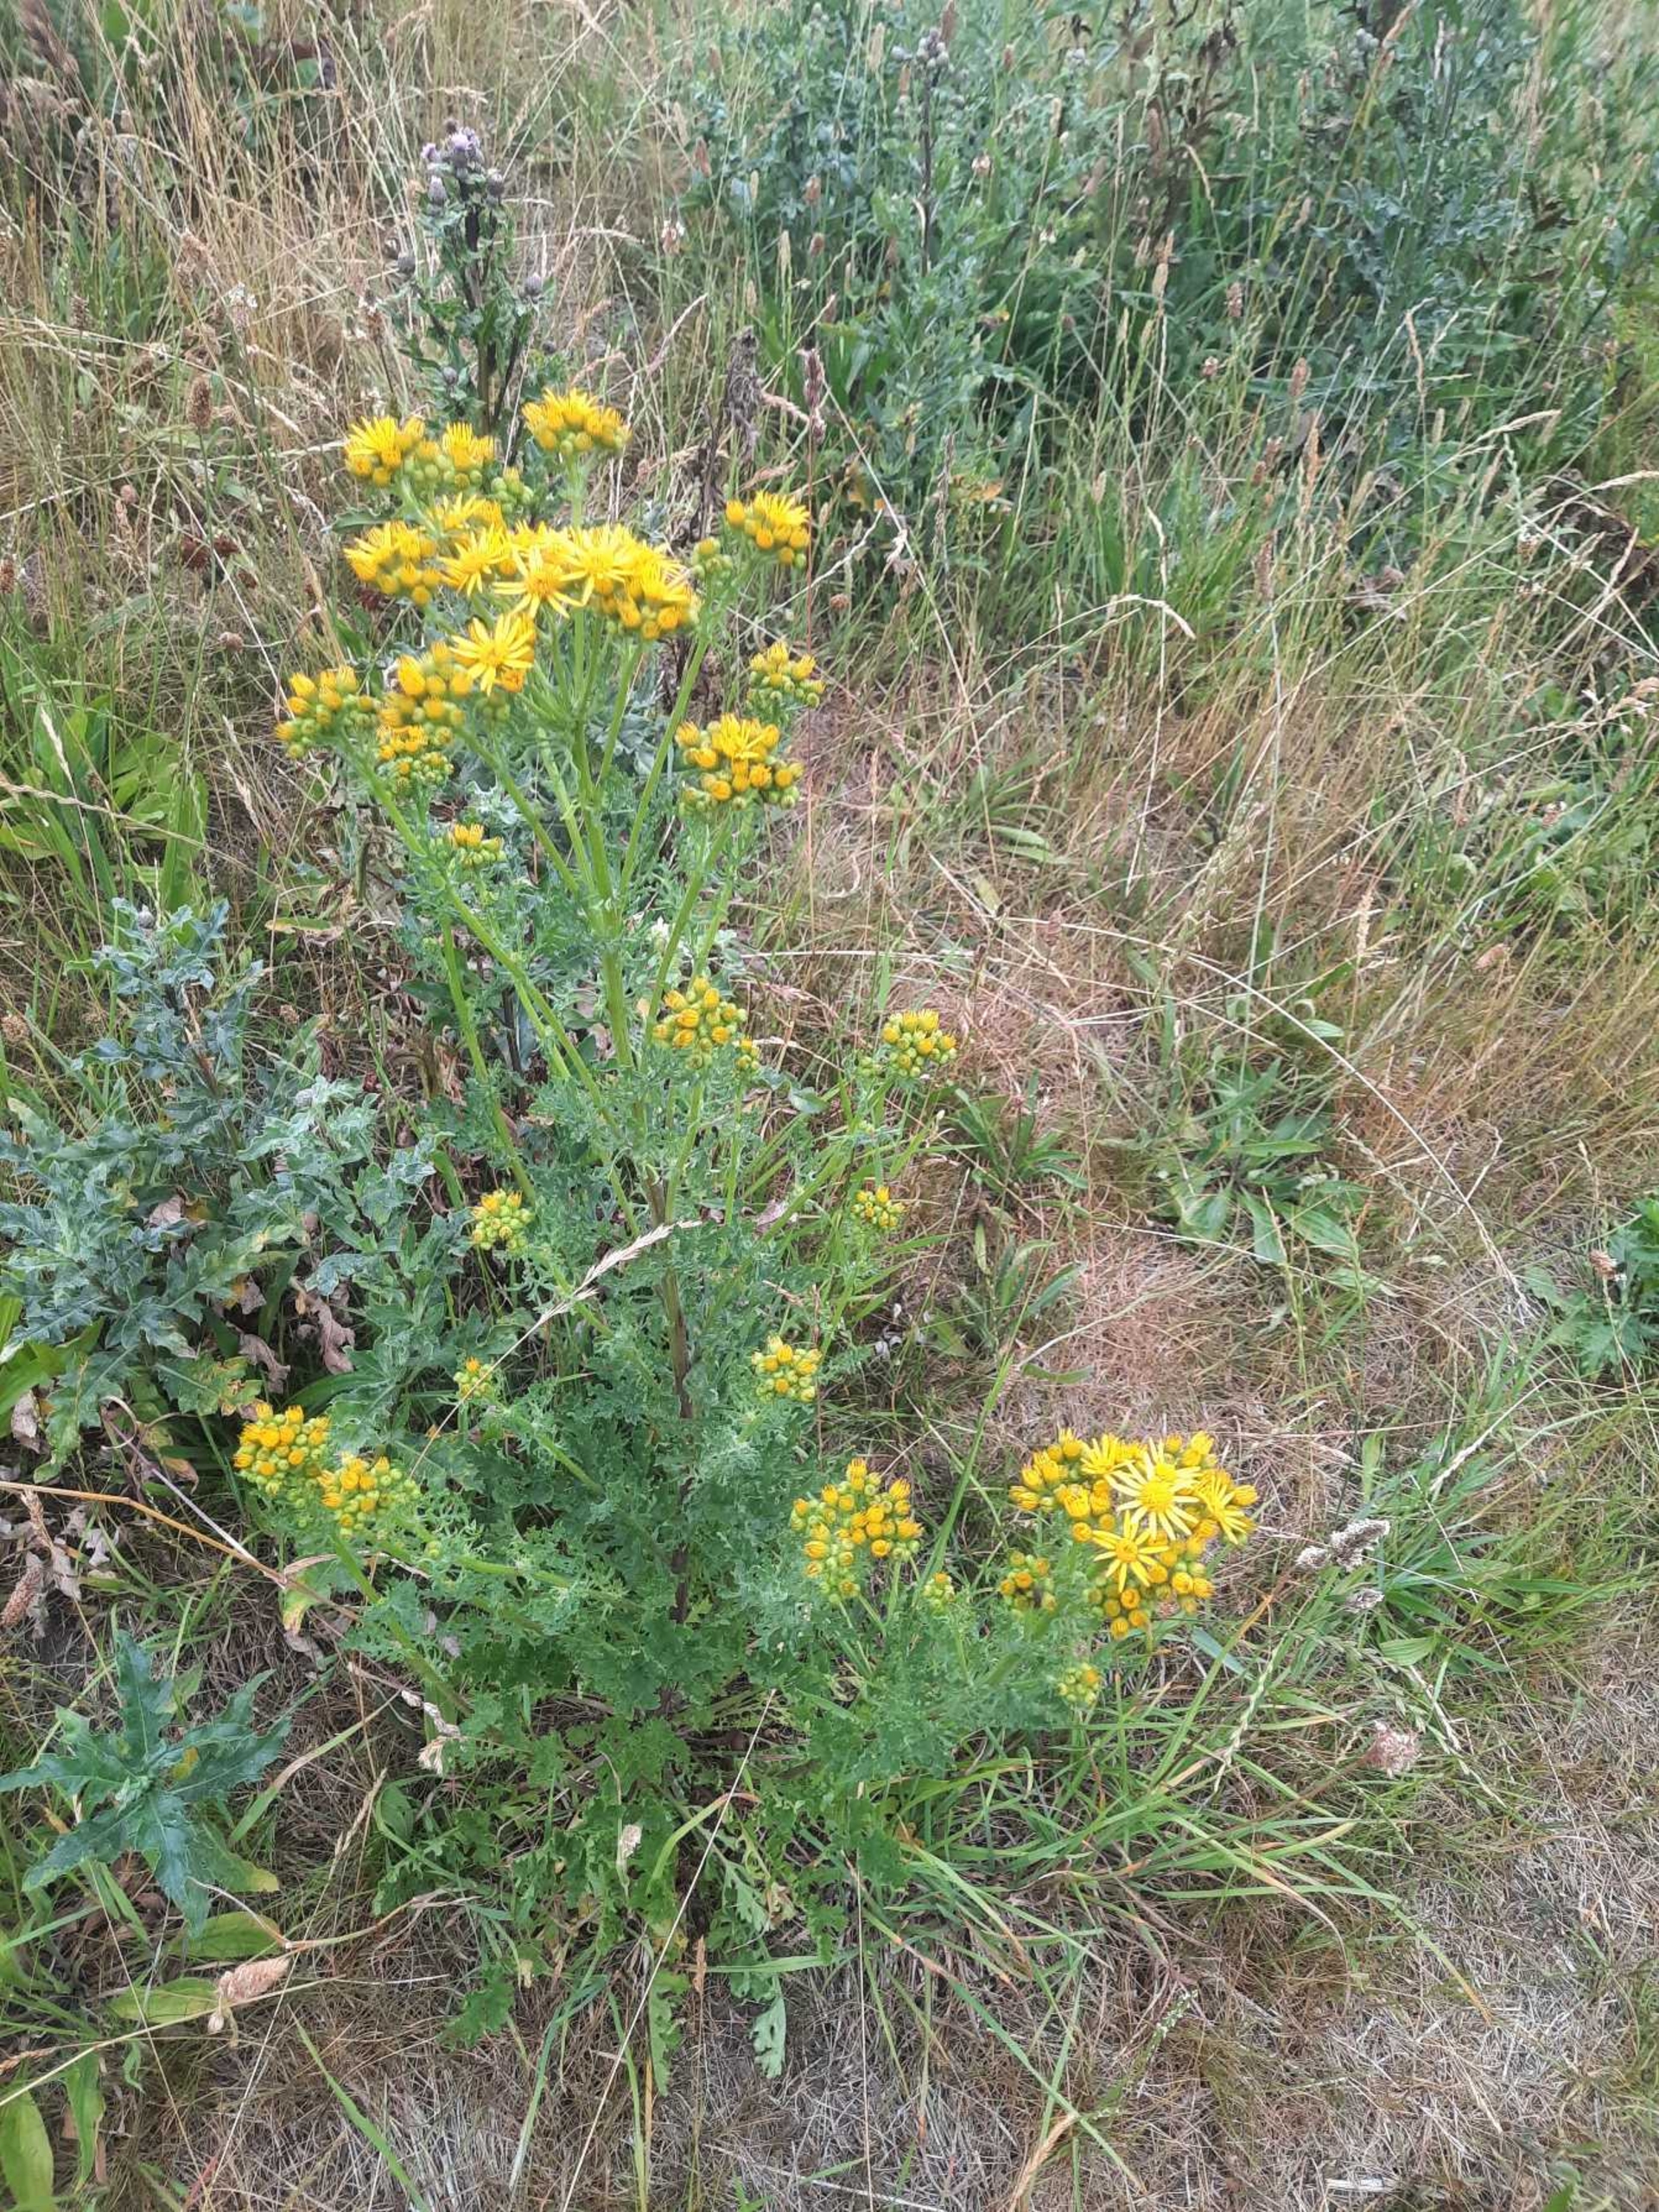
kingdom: Plantae
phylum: Tracheophyta
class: Magnoliopsida
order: Asterales
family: Asteraceae
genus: Jacobaea
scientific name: Jacobaea vulgaris
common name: Eng-brandbæger
